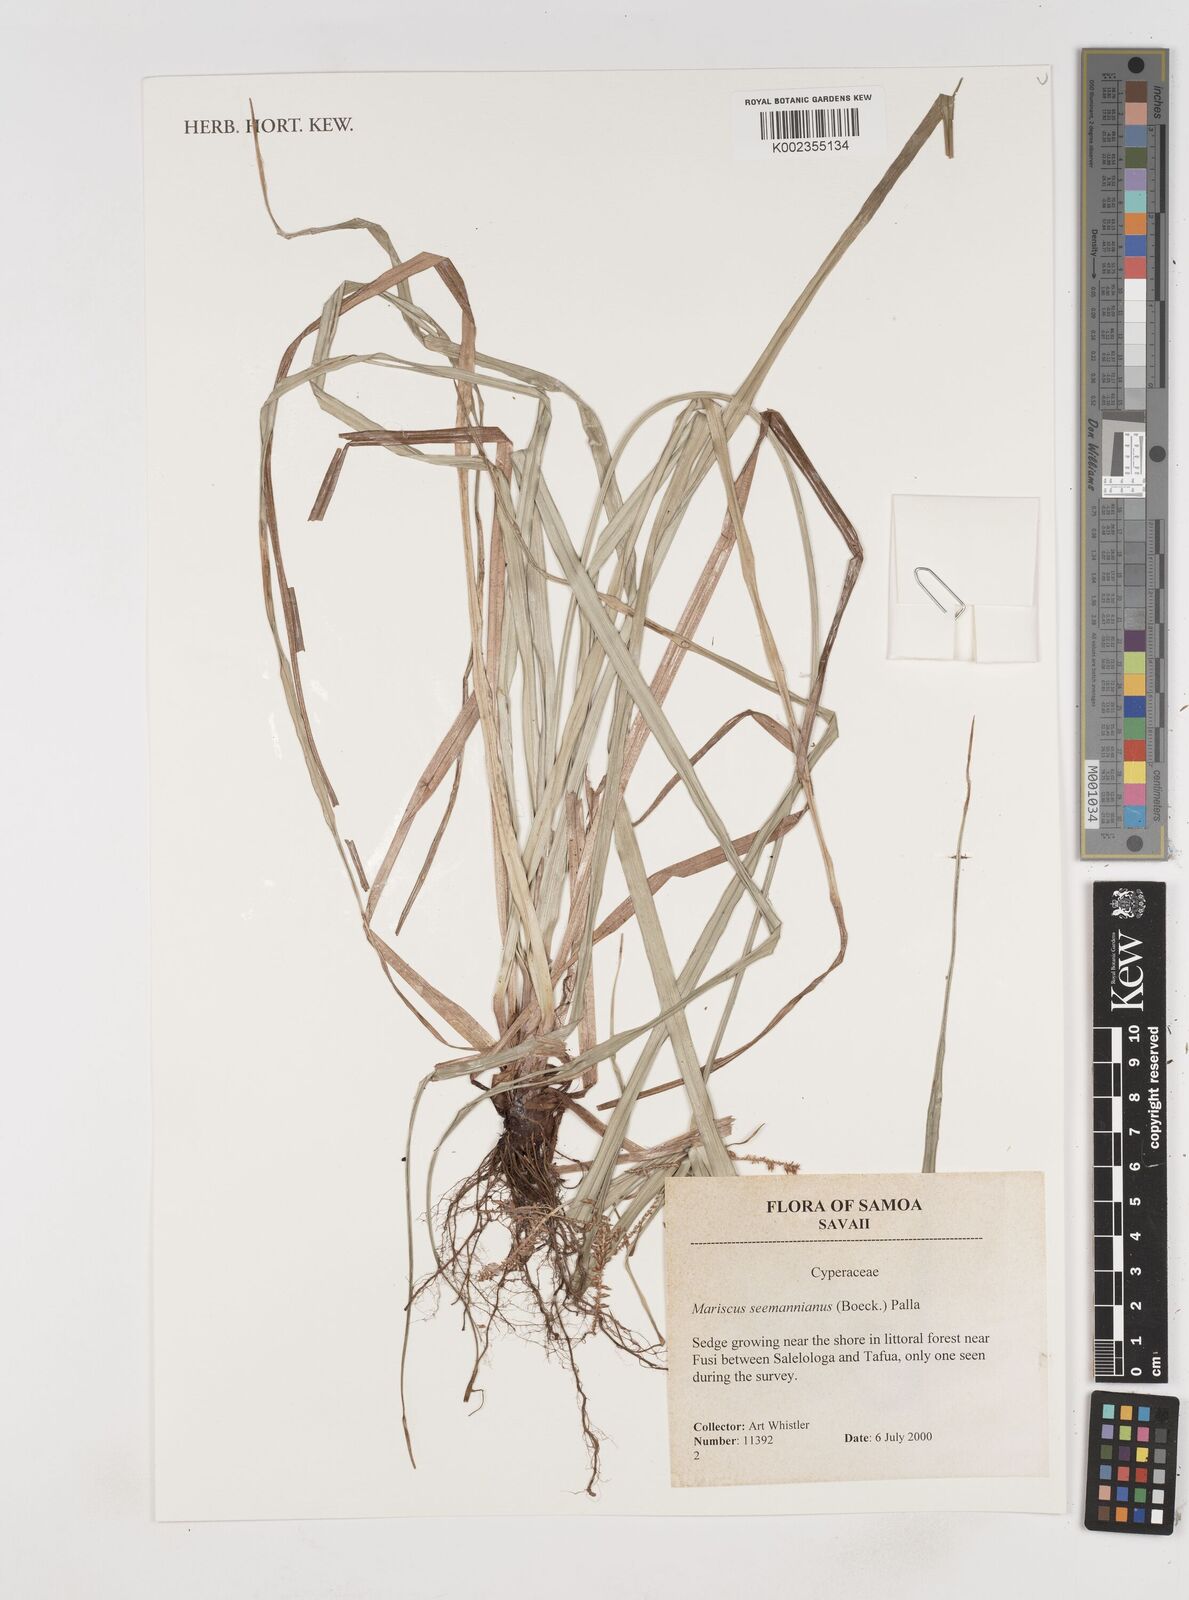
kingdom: Plantae
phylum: Tracheophyta
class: Liliopsida
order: Poales
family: Cyperaceae
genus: Cyperus
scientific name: Cyperus seemannianus
